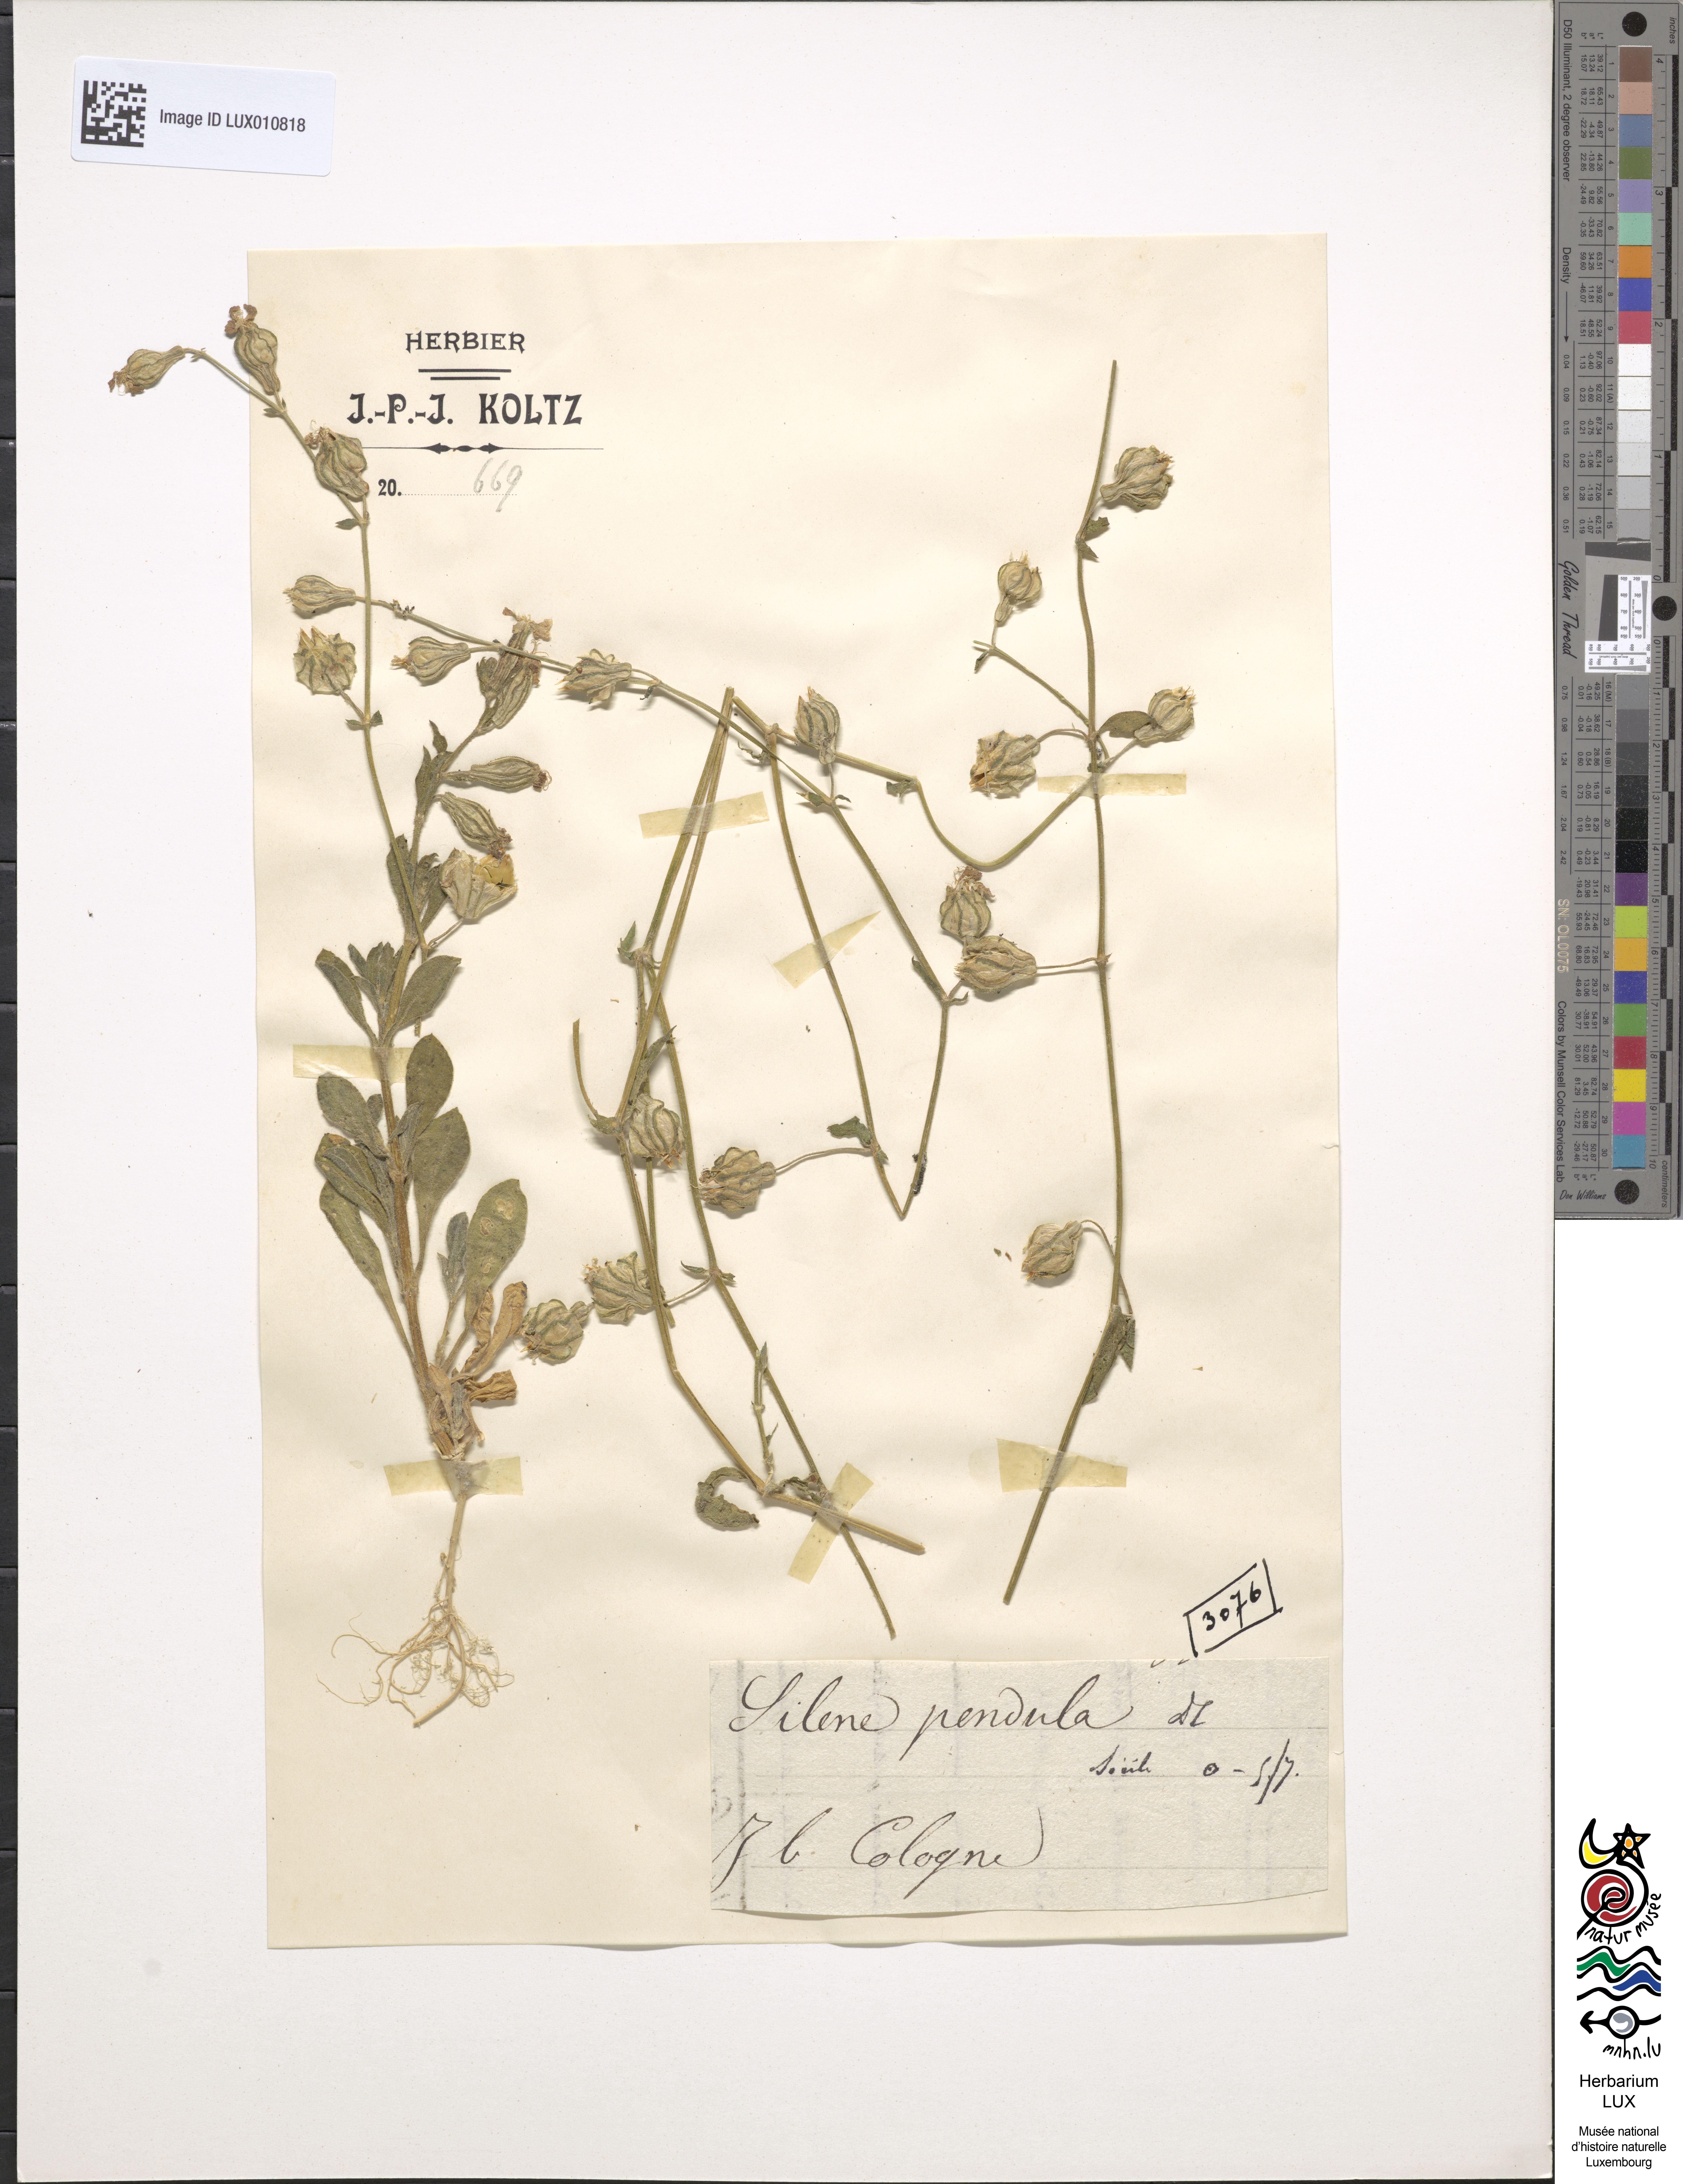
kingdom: Plantae
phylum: Tracheophyta
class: Magnoliopsida
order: Caryophyllales
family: Caryophyllaceae
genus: Silene
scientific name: Silene pendula
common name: Nodding catchfly
